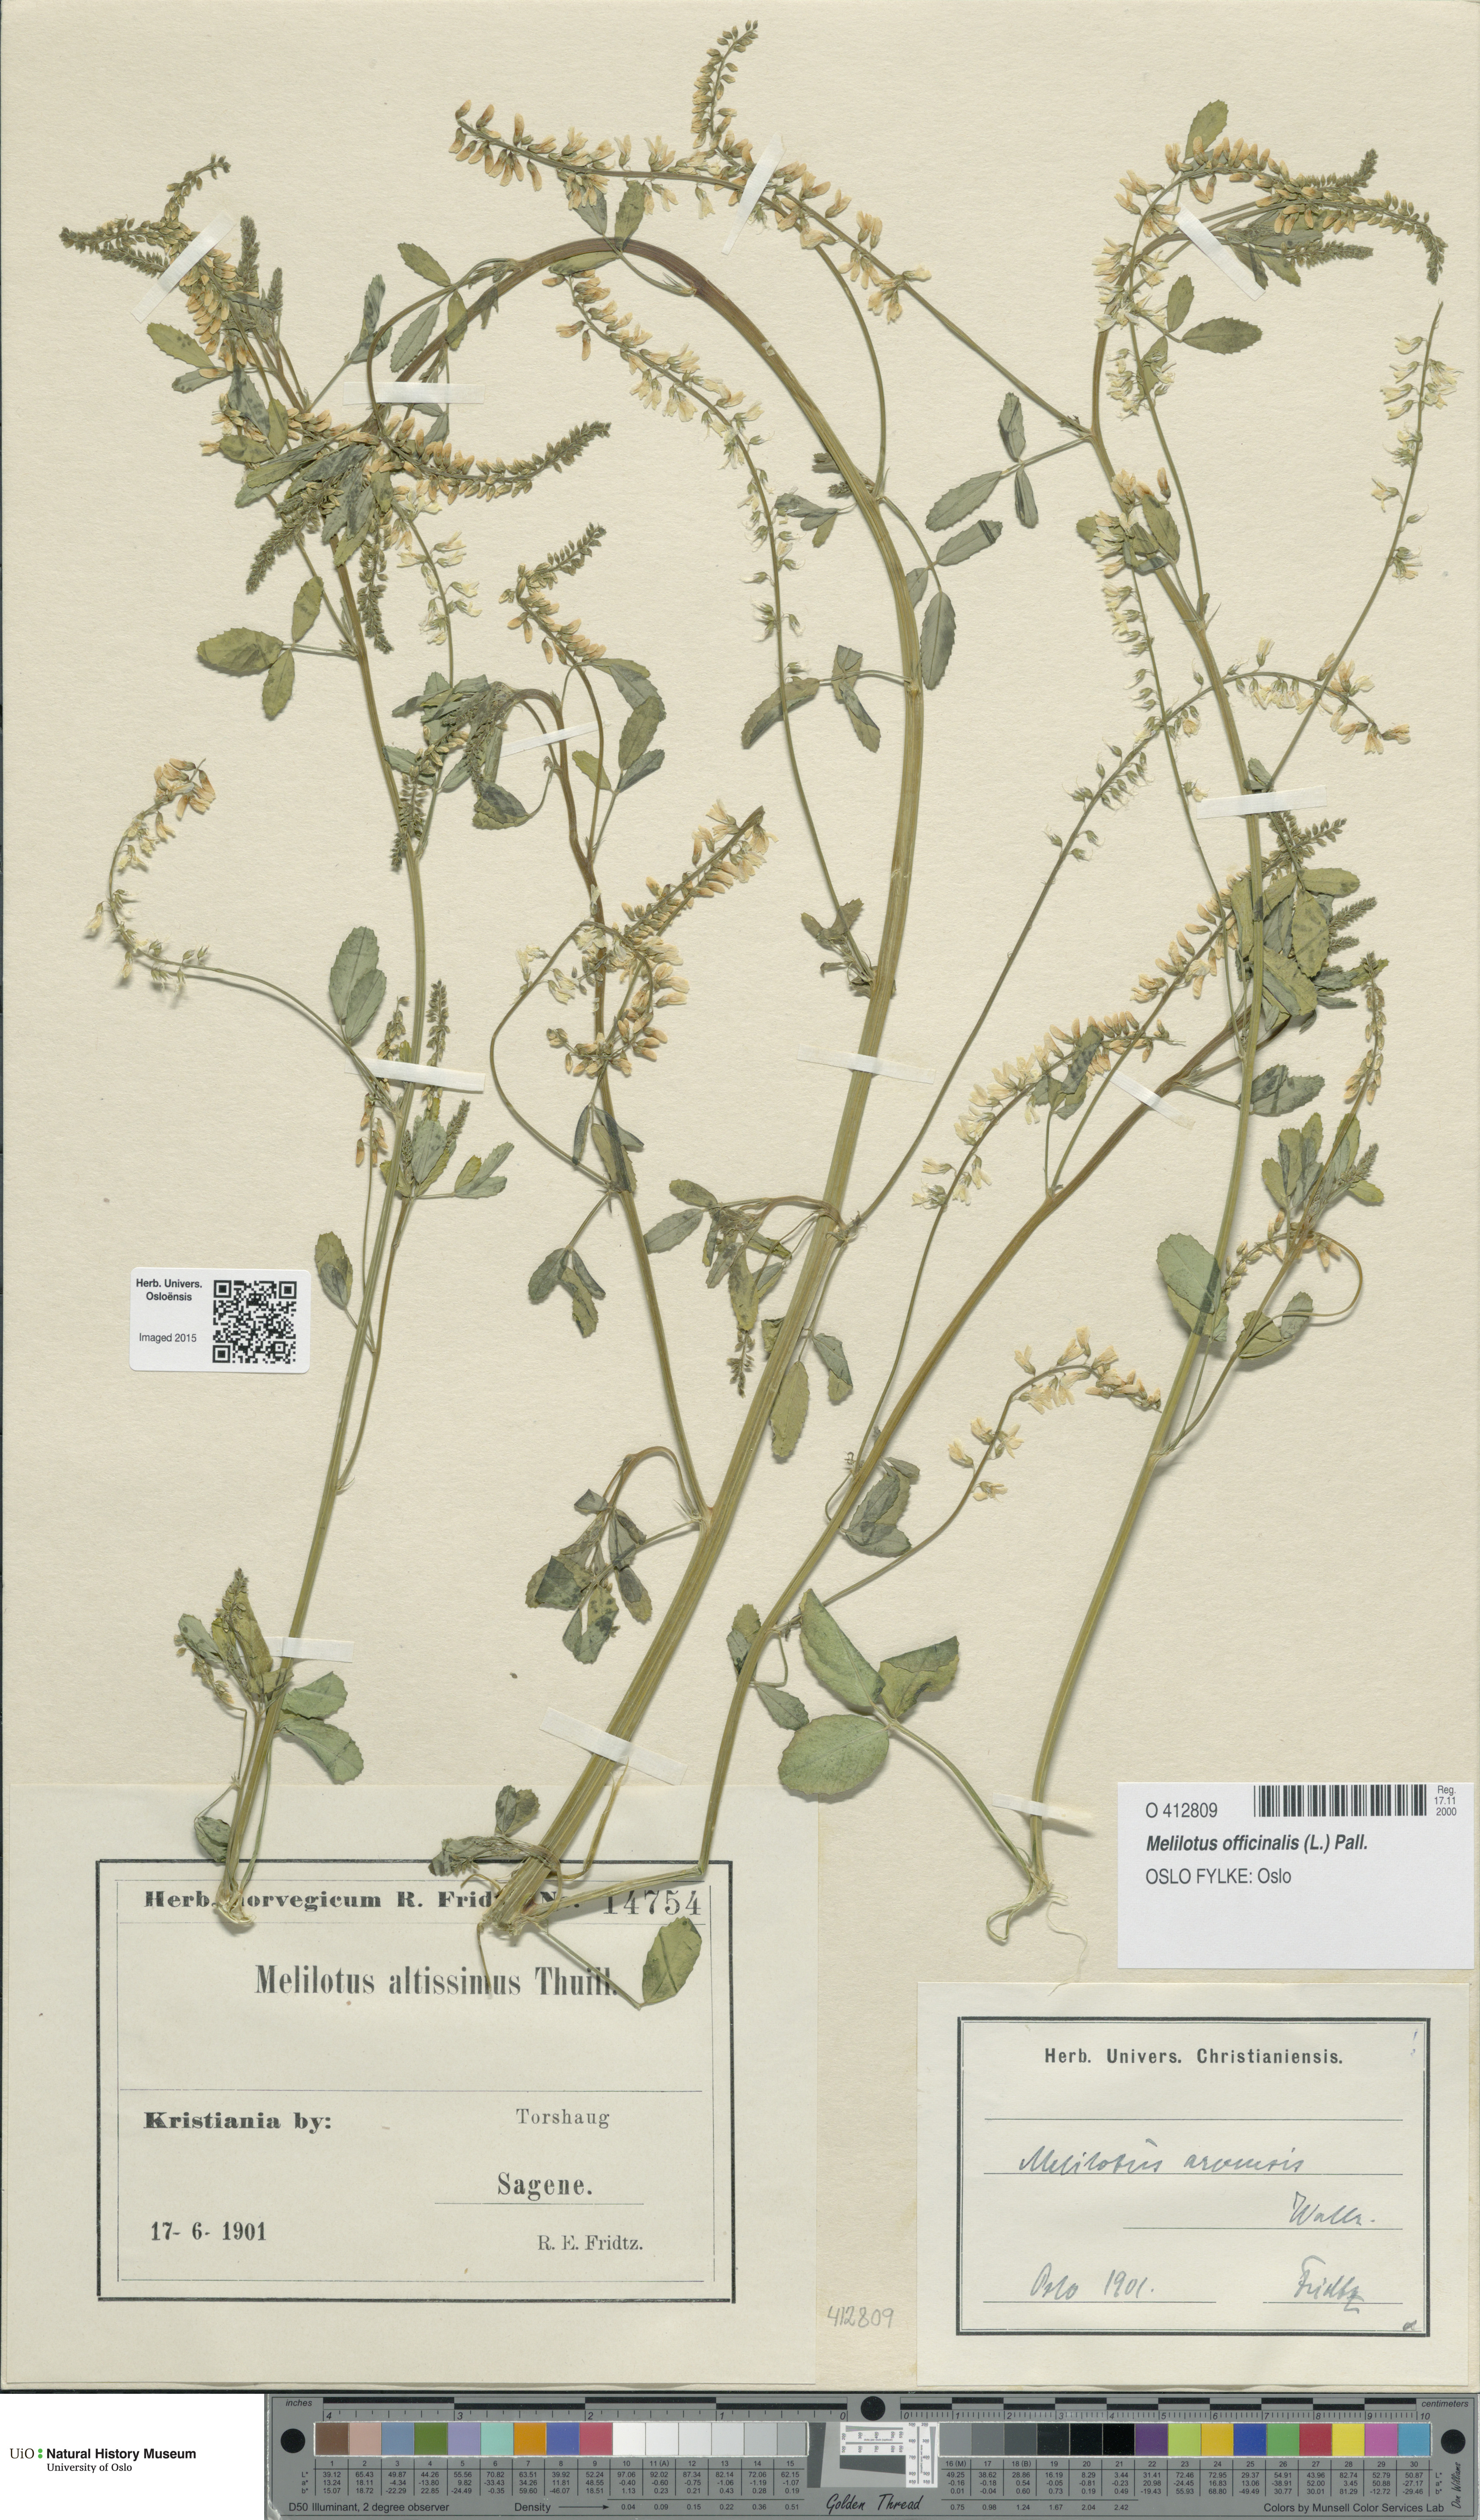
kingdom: Plantae
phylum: Tracheophyta
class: Magnoliopsida
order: Fabales
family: Fabaceae
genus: Melilotus
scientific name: Melilotus officinalis
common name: Sweetclover
